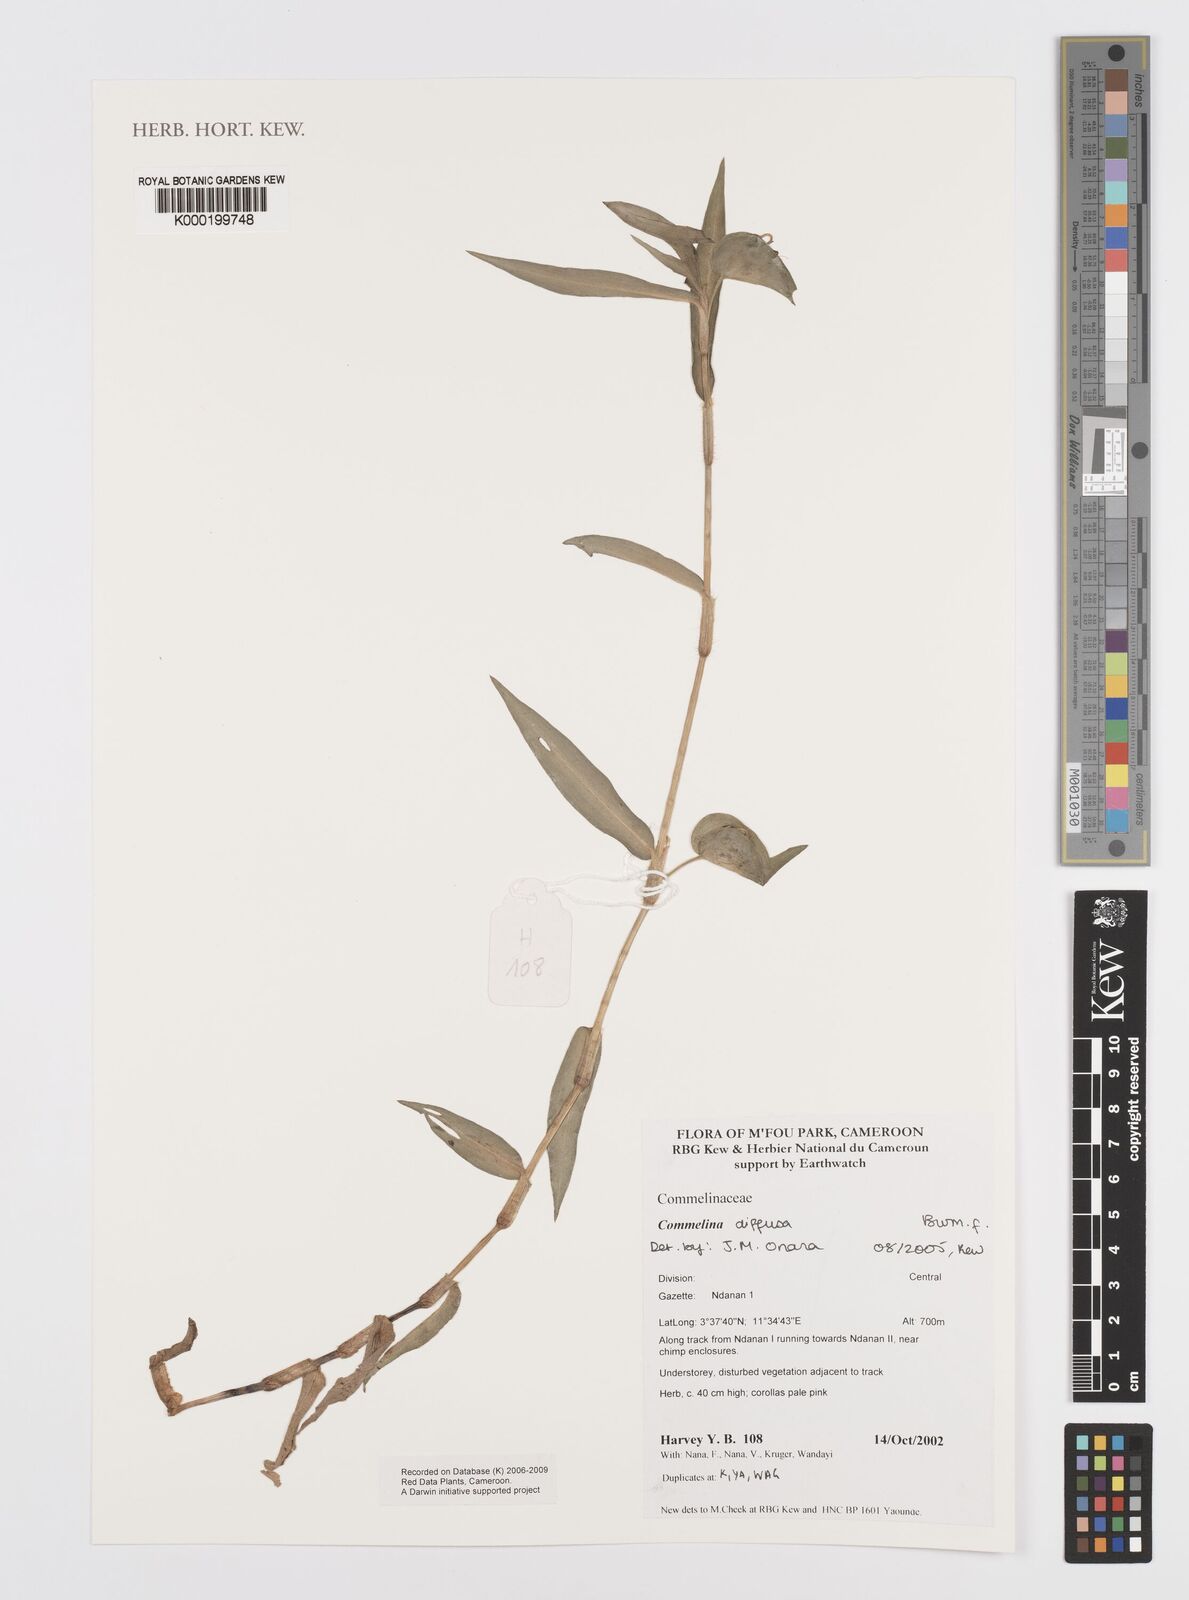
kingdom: Plantae
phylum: Tracheophyta
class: Liliopsida
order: Commelinales
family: Commelinaceae
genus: Commelina
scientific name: Commelina diffusa
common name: Climbing dayflower
